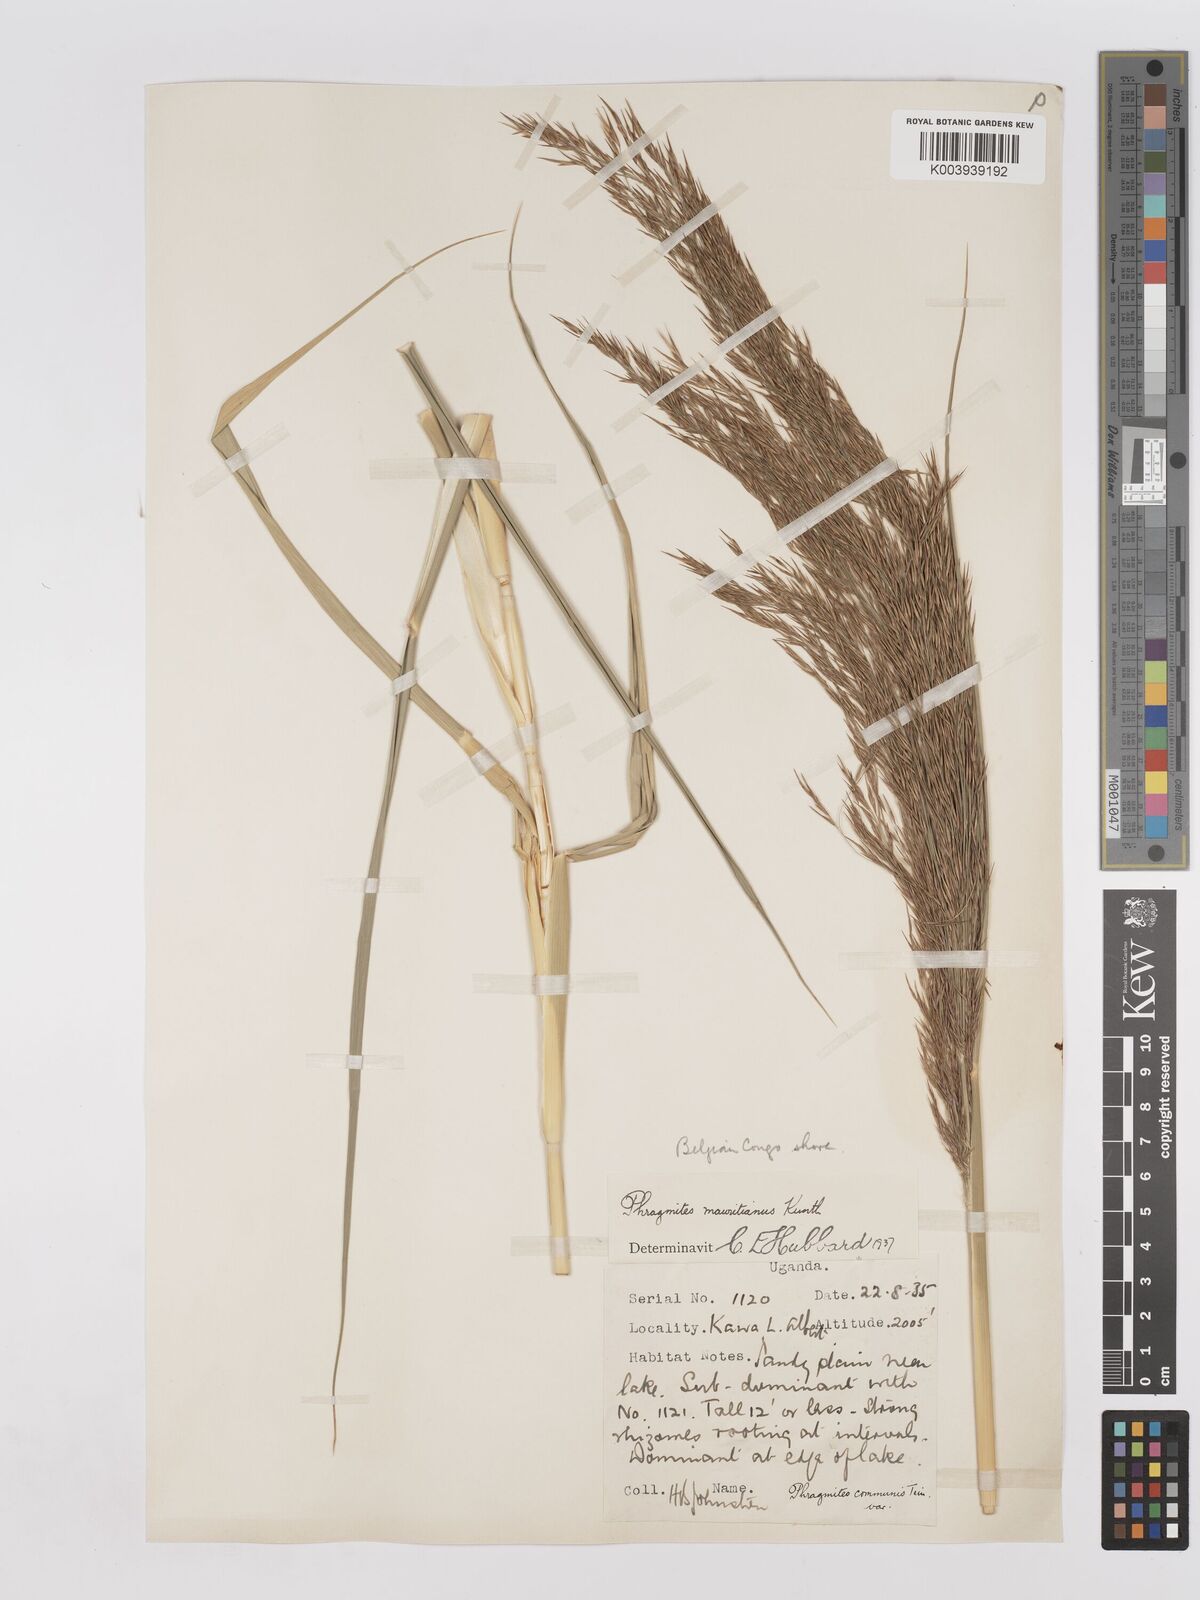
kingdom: Plantae
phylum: Tracheophyta
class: Liliopsida
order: Poales
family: Poaceae
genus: Phragmites
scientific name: Phragmites mauritianus
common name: Reed grass
